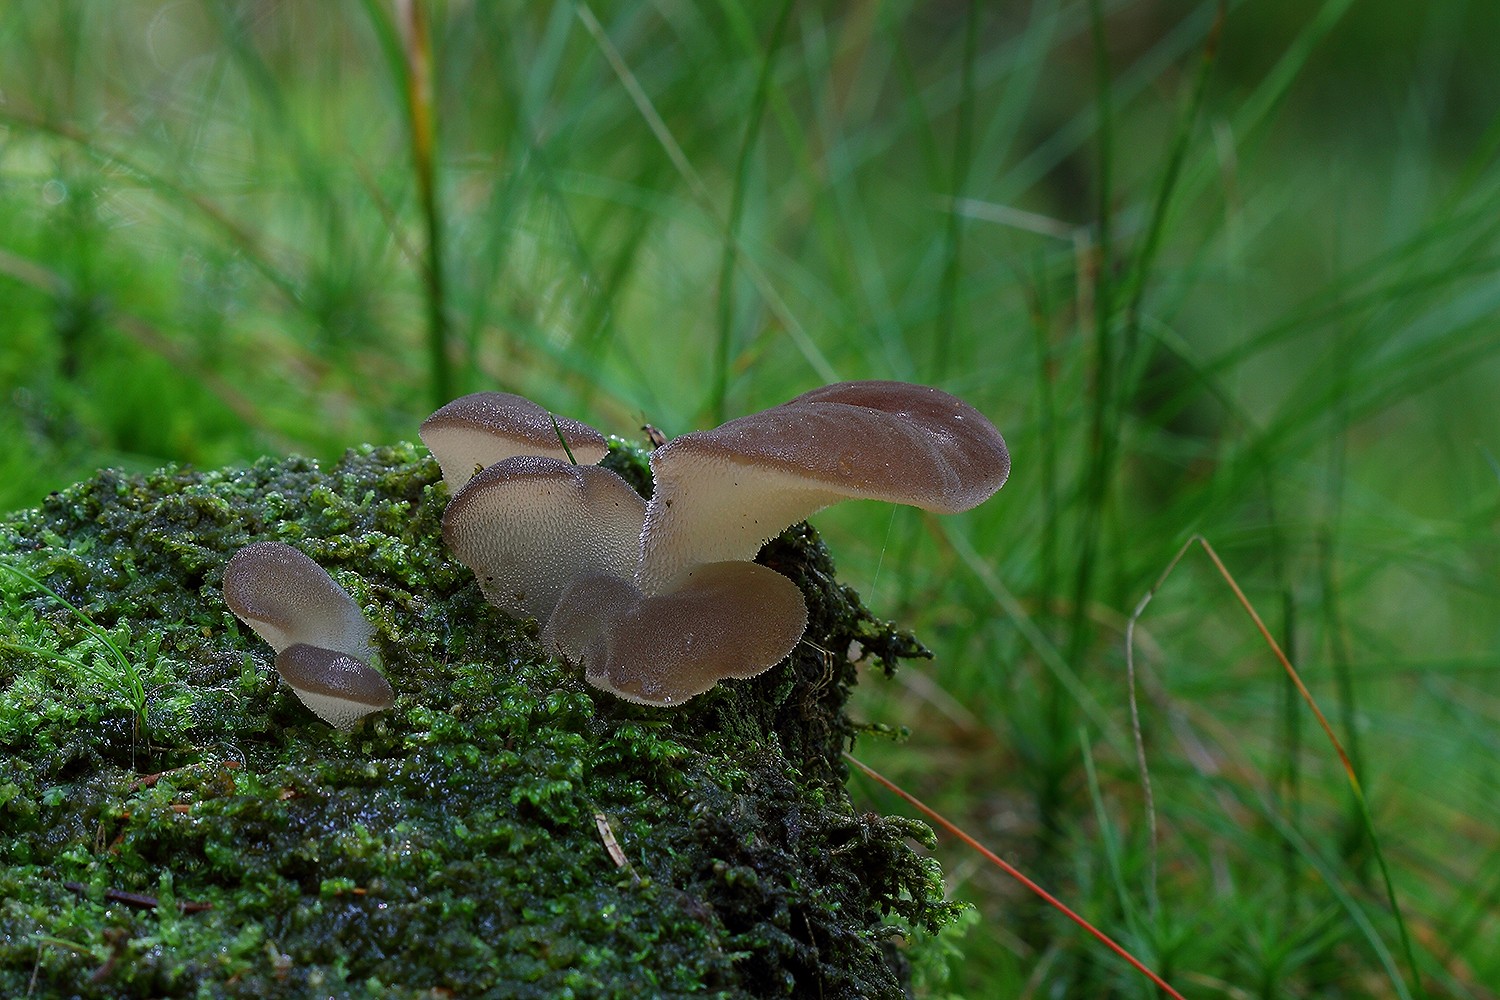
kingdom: Fungi
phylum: Basidiomycota
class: Agaricomycetes
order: Auriculariales
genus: Pseudohydnum
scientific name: Pseudohydnum gelatinosum
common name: bævretand
